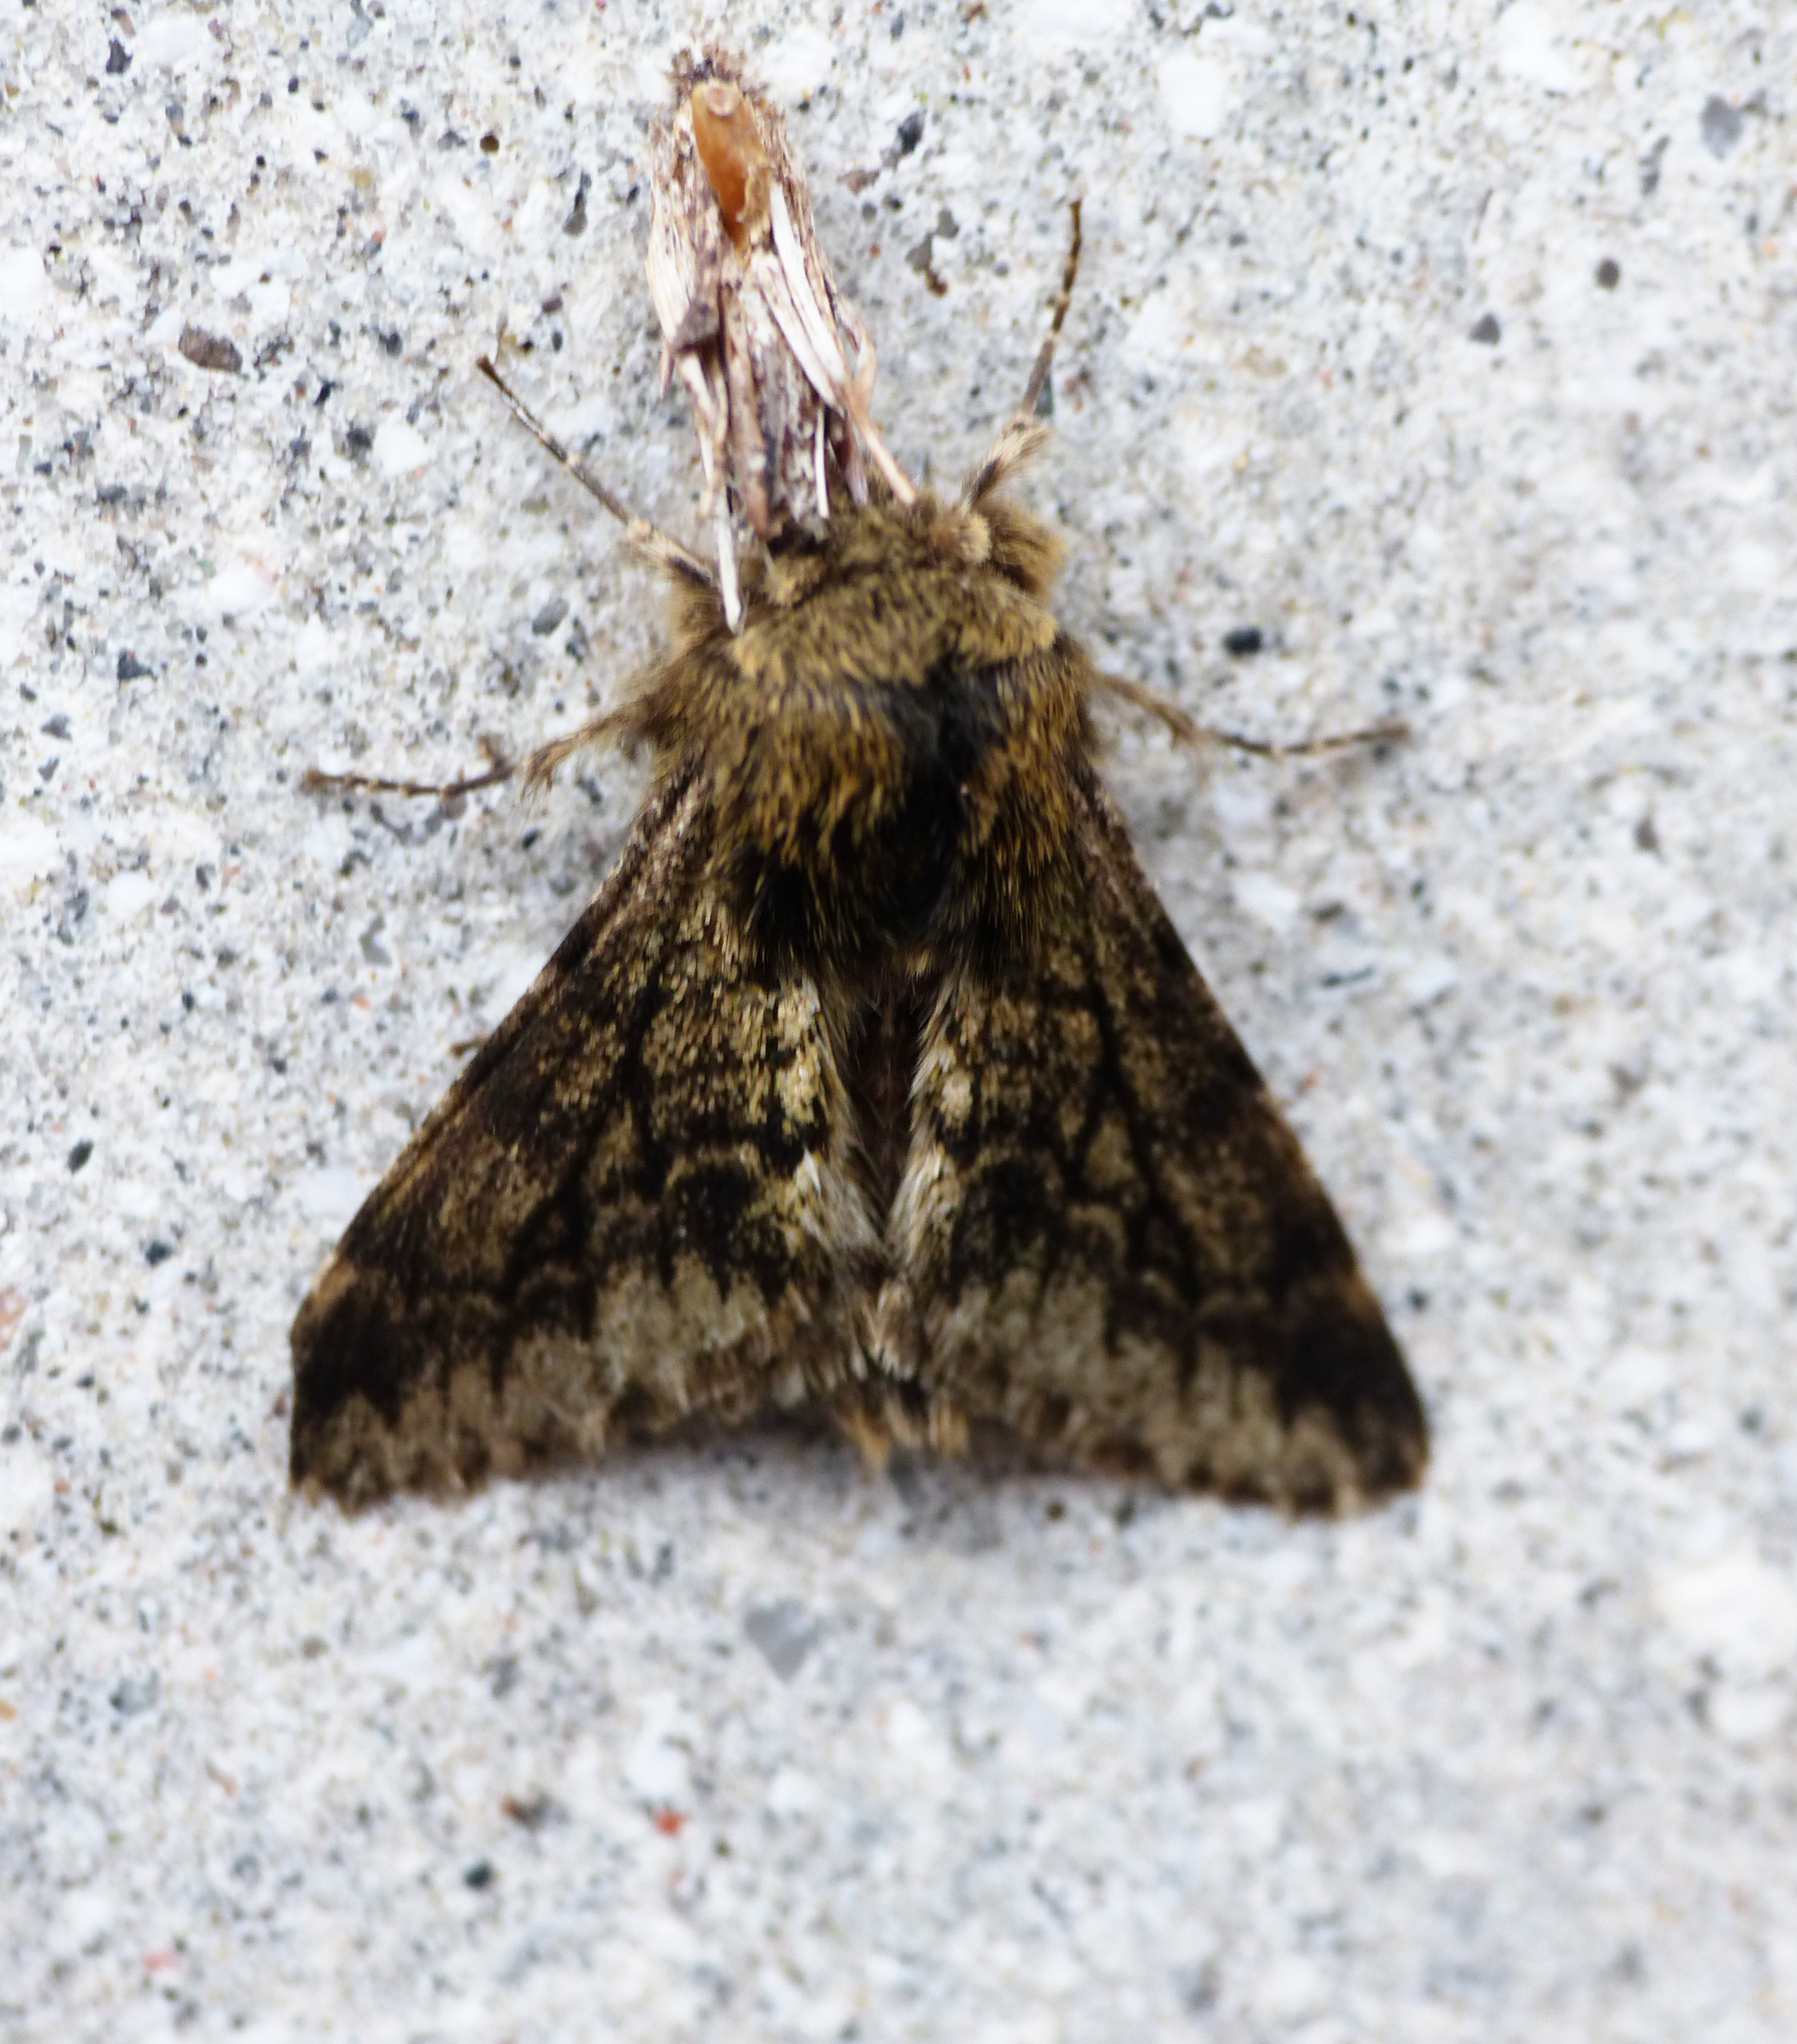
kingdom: Animalia
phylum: Arthropoda
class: Insecta
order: Lepidoptera
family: Geometridae
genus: Apocheima
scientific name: Apocheima hispidaria
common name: Ege-vintermåler
